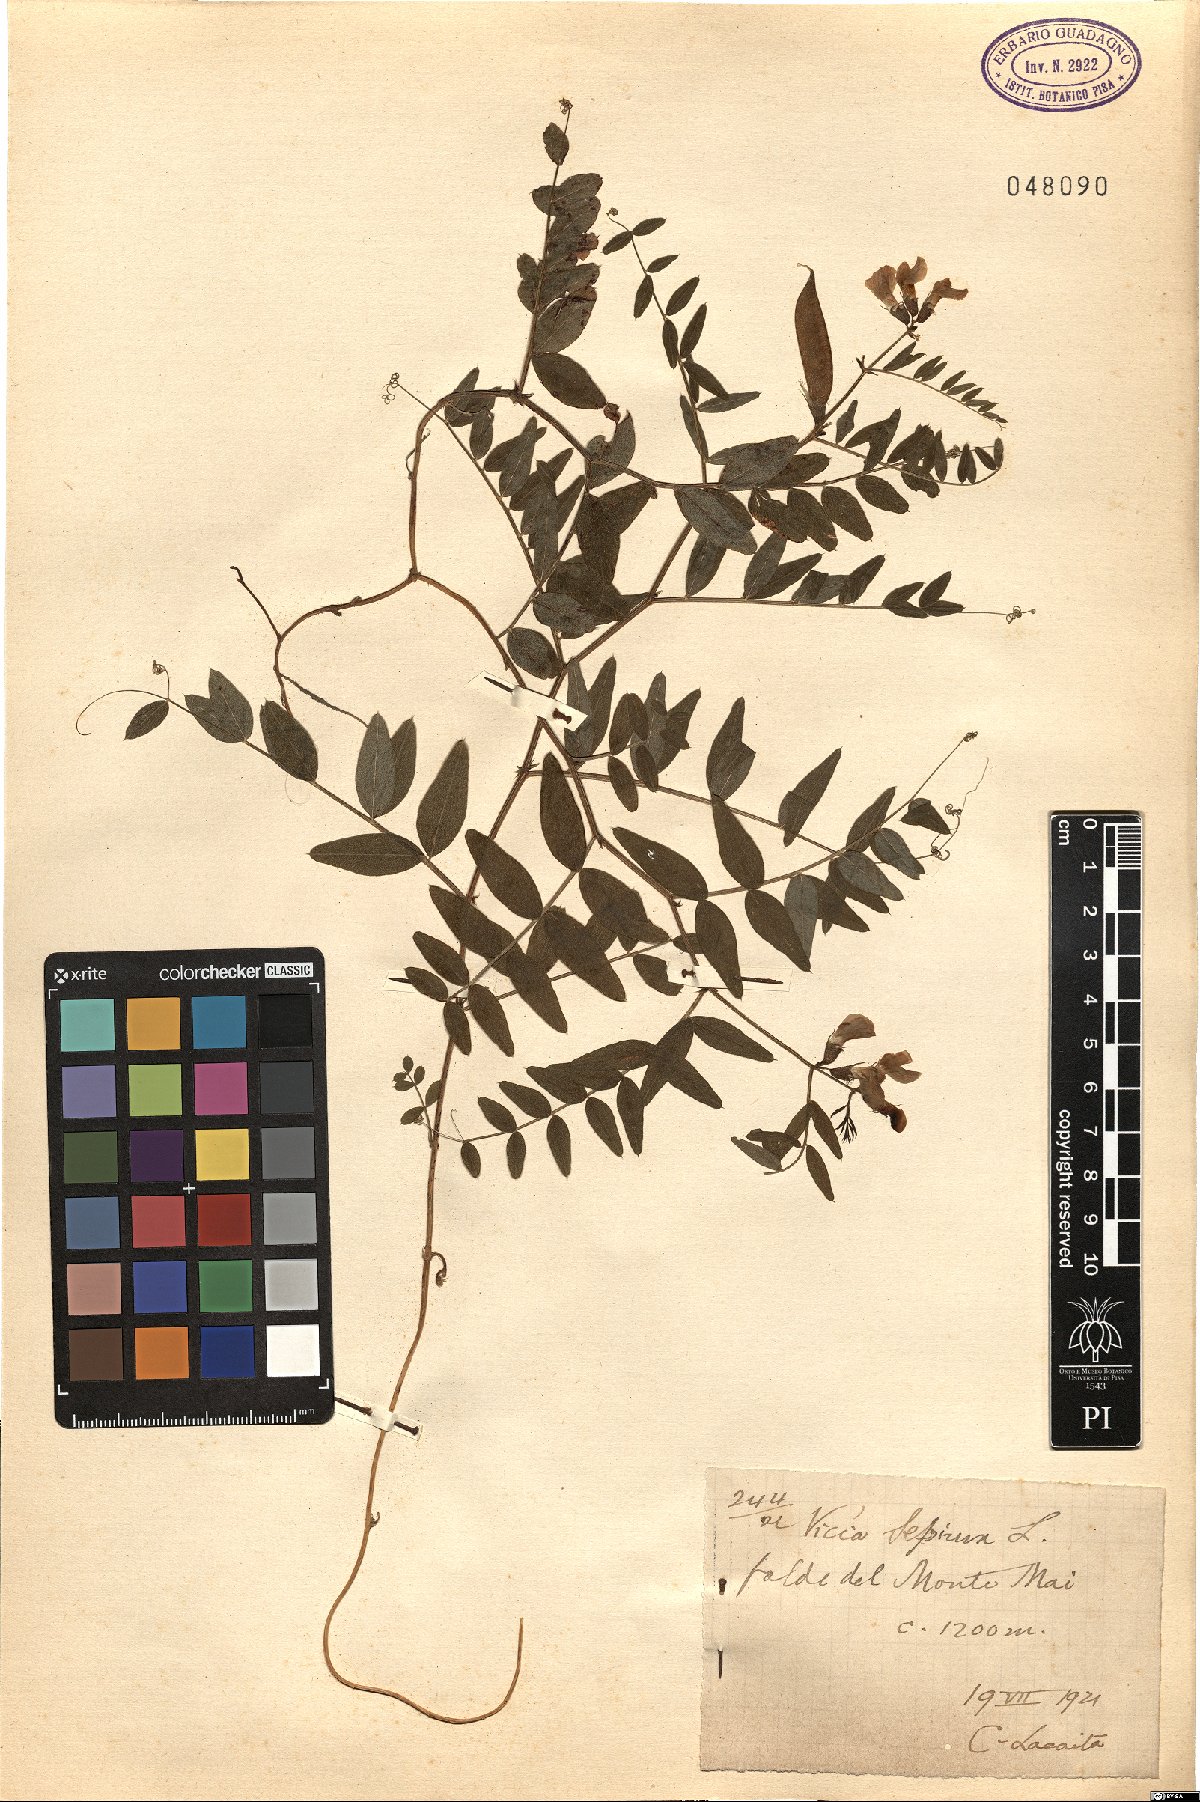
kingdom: Plantae
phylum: Tracheophyta
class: Magnoliopsida
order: Fabales
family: Fabaceae
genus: Vicia
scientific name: Vicia sepium
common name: Bush vetch
